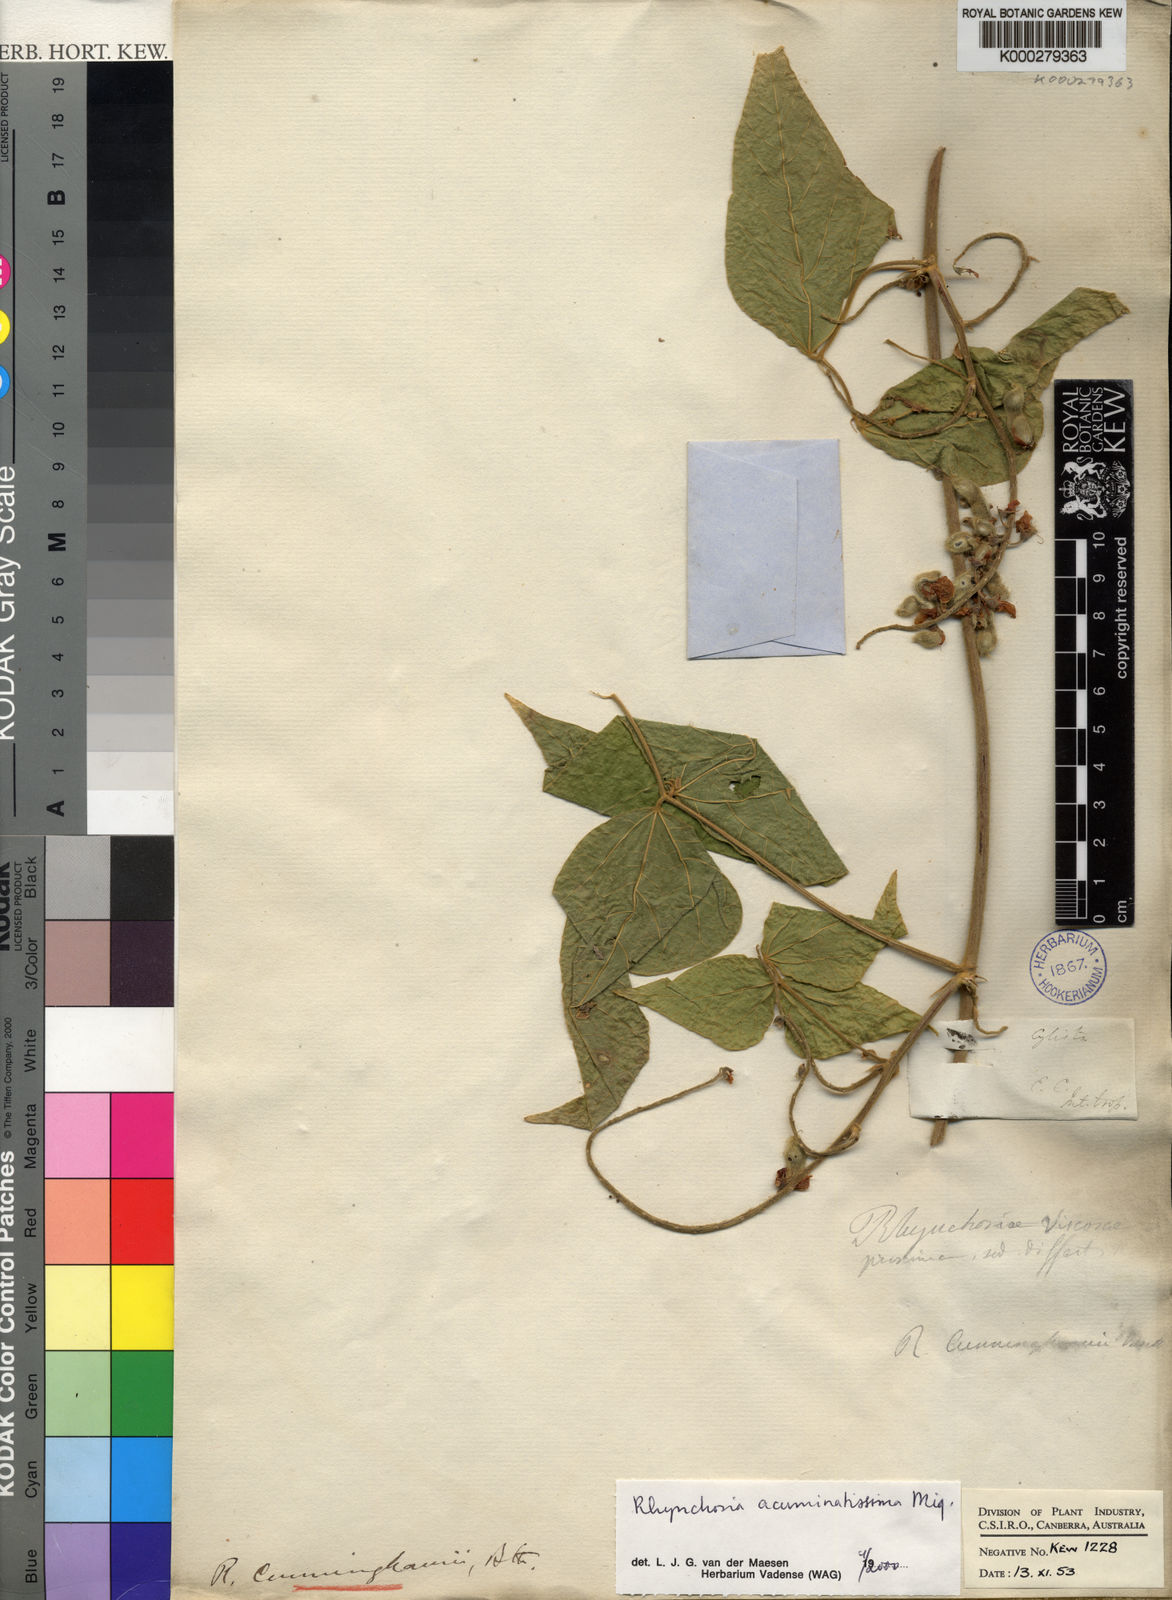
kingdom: Plantae
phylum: Tracheophyta
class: Magnoliopsida
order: Fabales
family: Fabaceae
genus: Rhynchosia
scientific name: Rhynchosia acuminatissima
